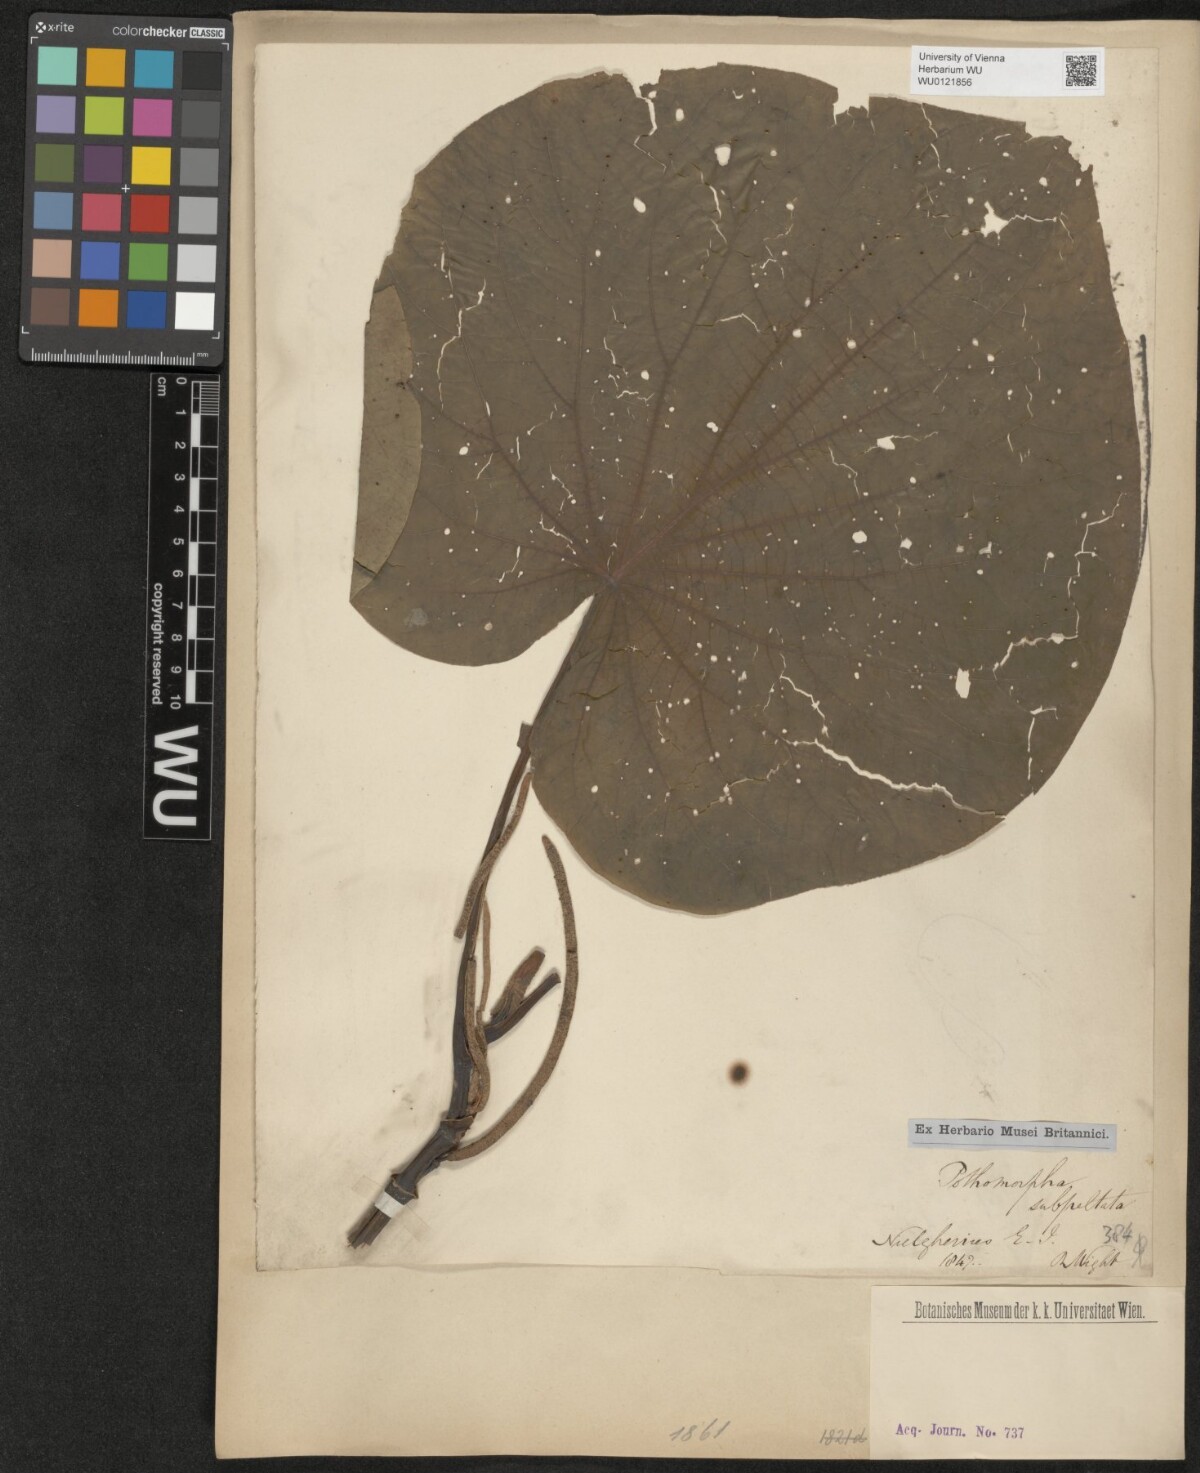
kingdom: Plantae
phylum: Tracheophyta
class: Magnoliopsida
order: Piperales
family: Piperaceae
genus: Piper
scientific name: Piper umbellatum
